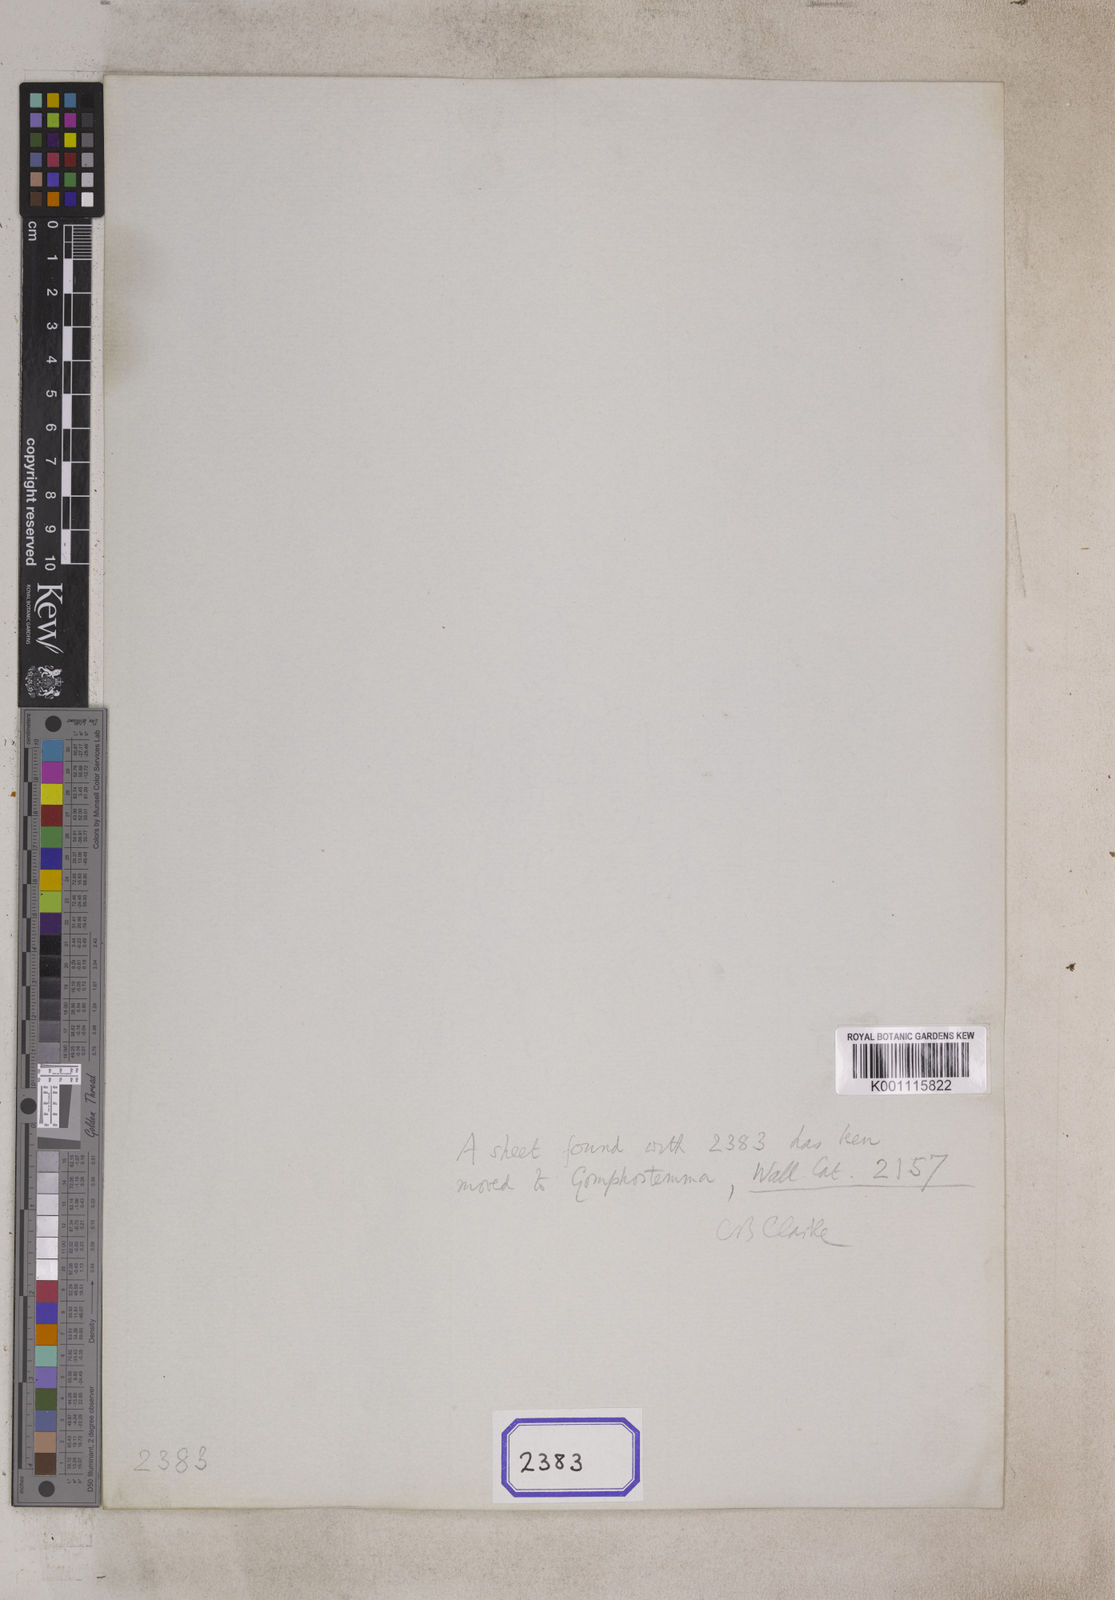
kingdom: Plantae
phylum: Tracheophyta
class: Magnoliopsida
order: Lamiales
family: Acanthaceae
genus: Ruellia
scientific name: Ruellia
